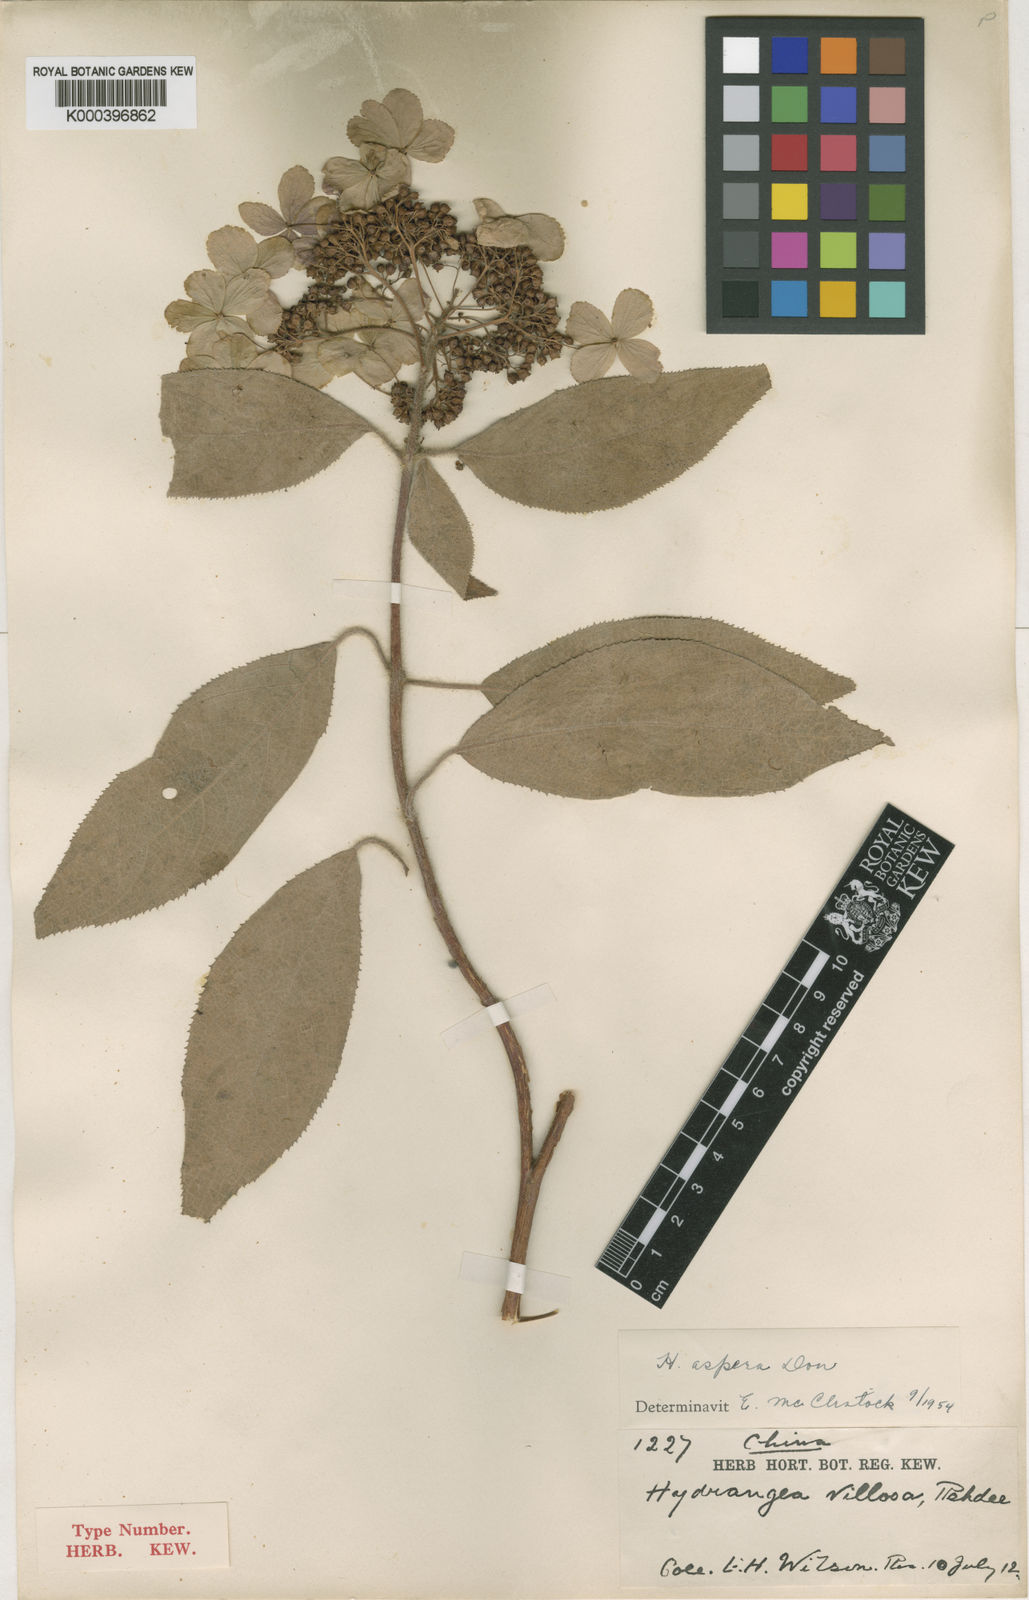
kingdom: Plantae
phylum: Tracheophyta
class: Magnoliopsida
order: Cornales
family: Hydrangeaceae
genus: Hydrangea
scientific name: Hydrangea aspera
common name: Rough-leaf hydrangea
